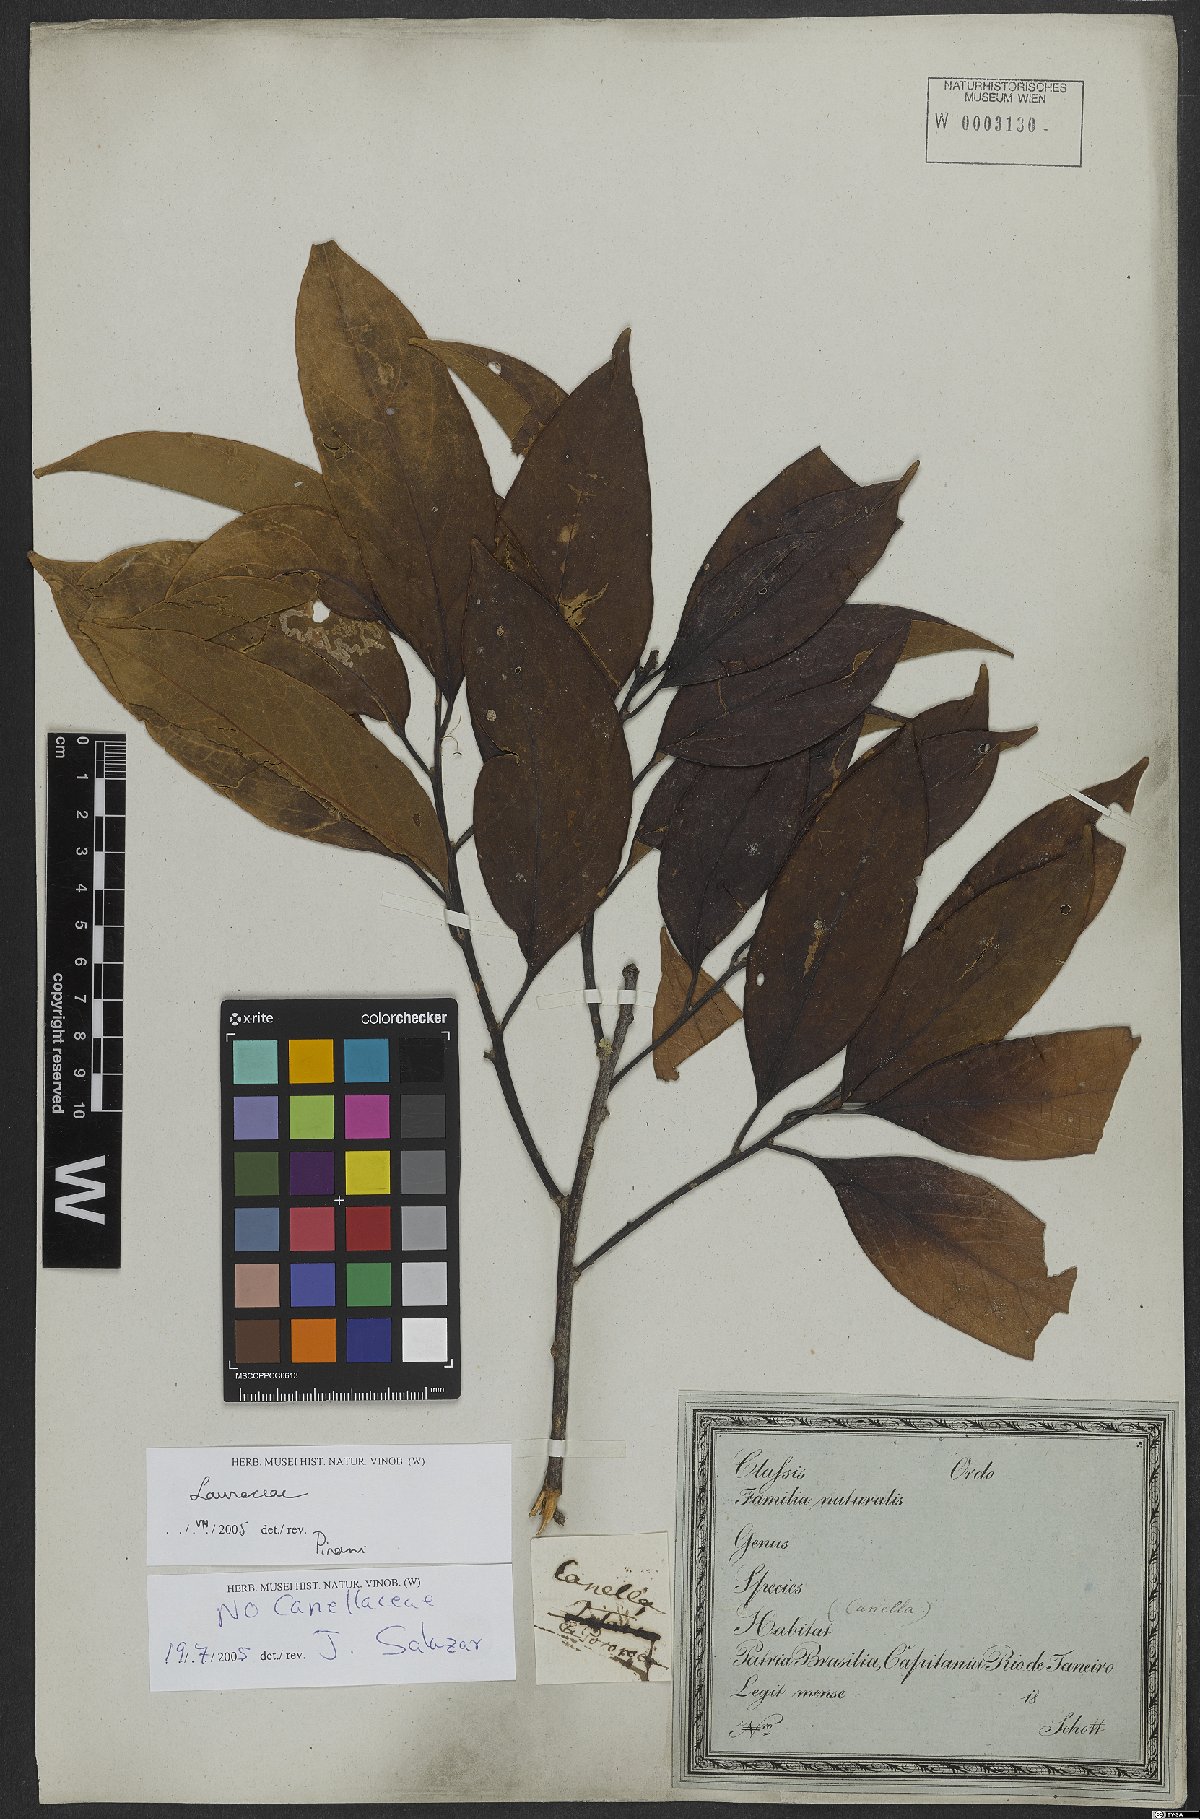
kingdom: Plantae
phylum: Tracheophyta
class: Magnoliopsida
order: Laurales
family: Lauraceae
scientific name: Lauraceae
